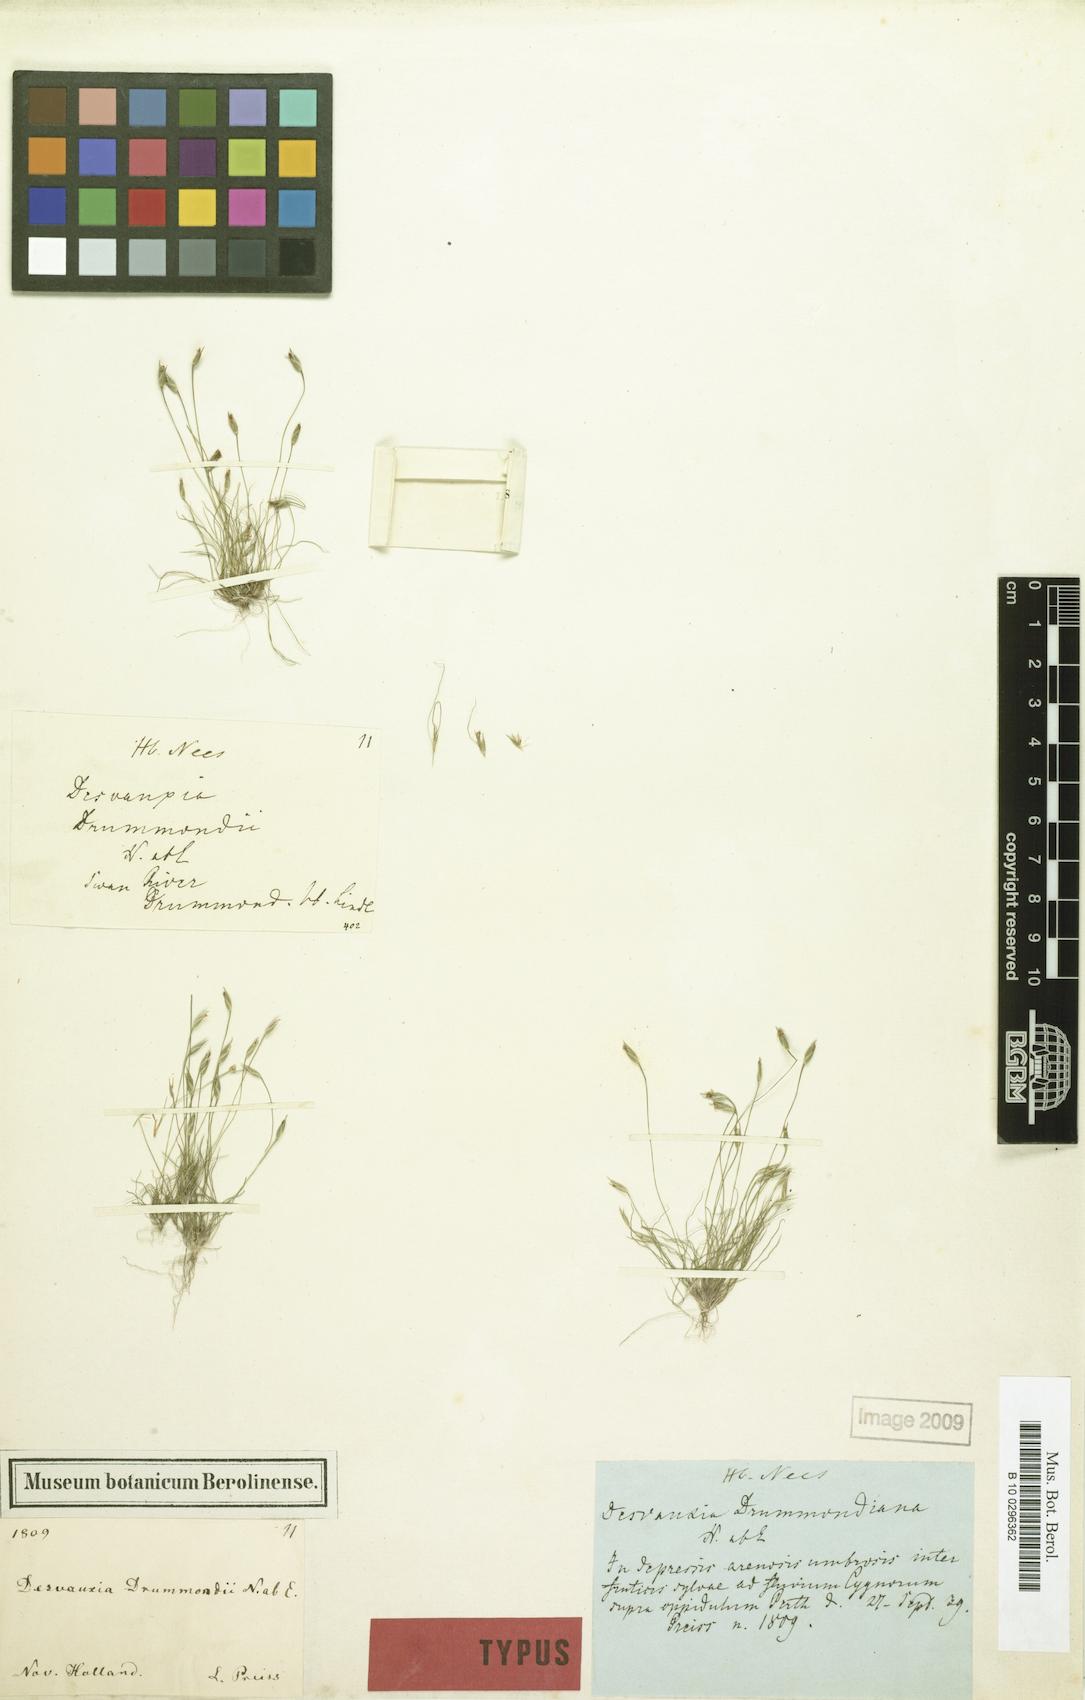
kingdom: Plantae
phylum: Tracheophyta
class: Liliopsida
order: Poales
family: Restionaceae
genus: Centrolepis
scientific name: Centrolepis drummondiana
